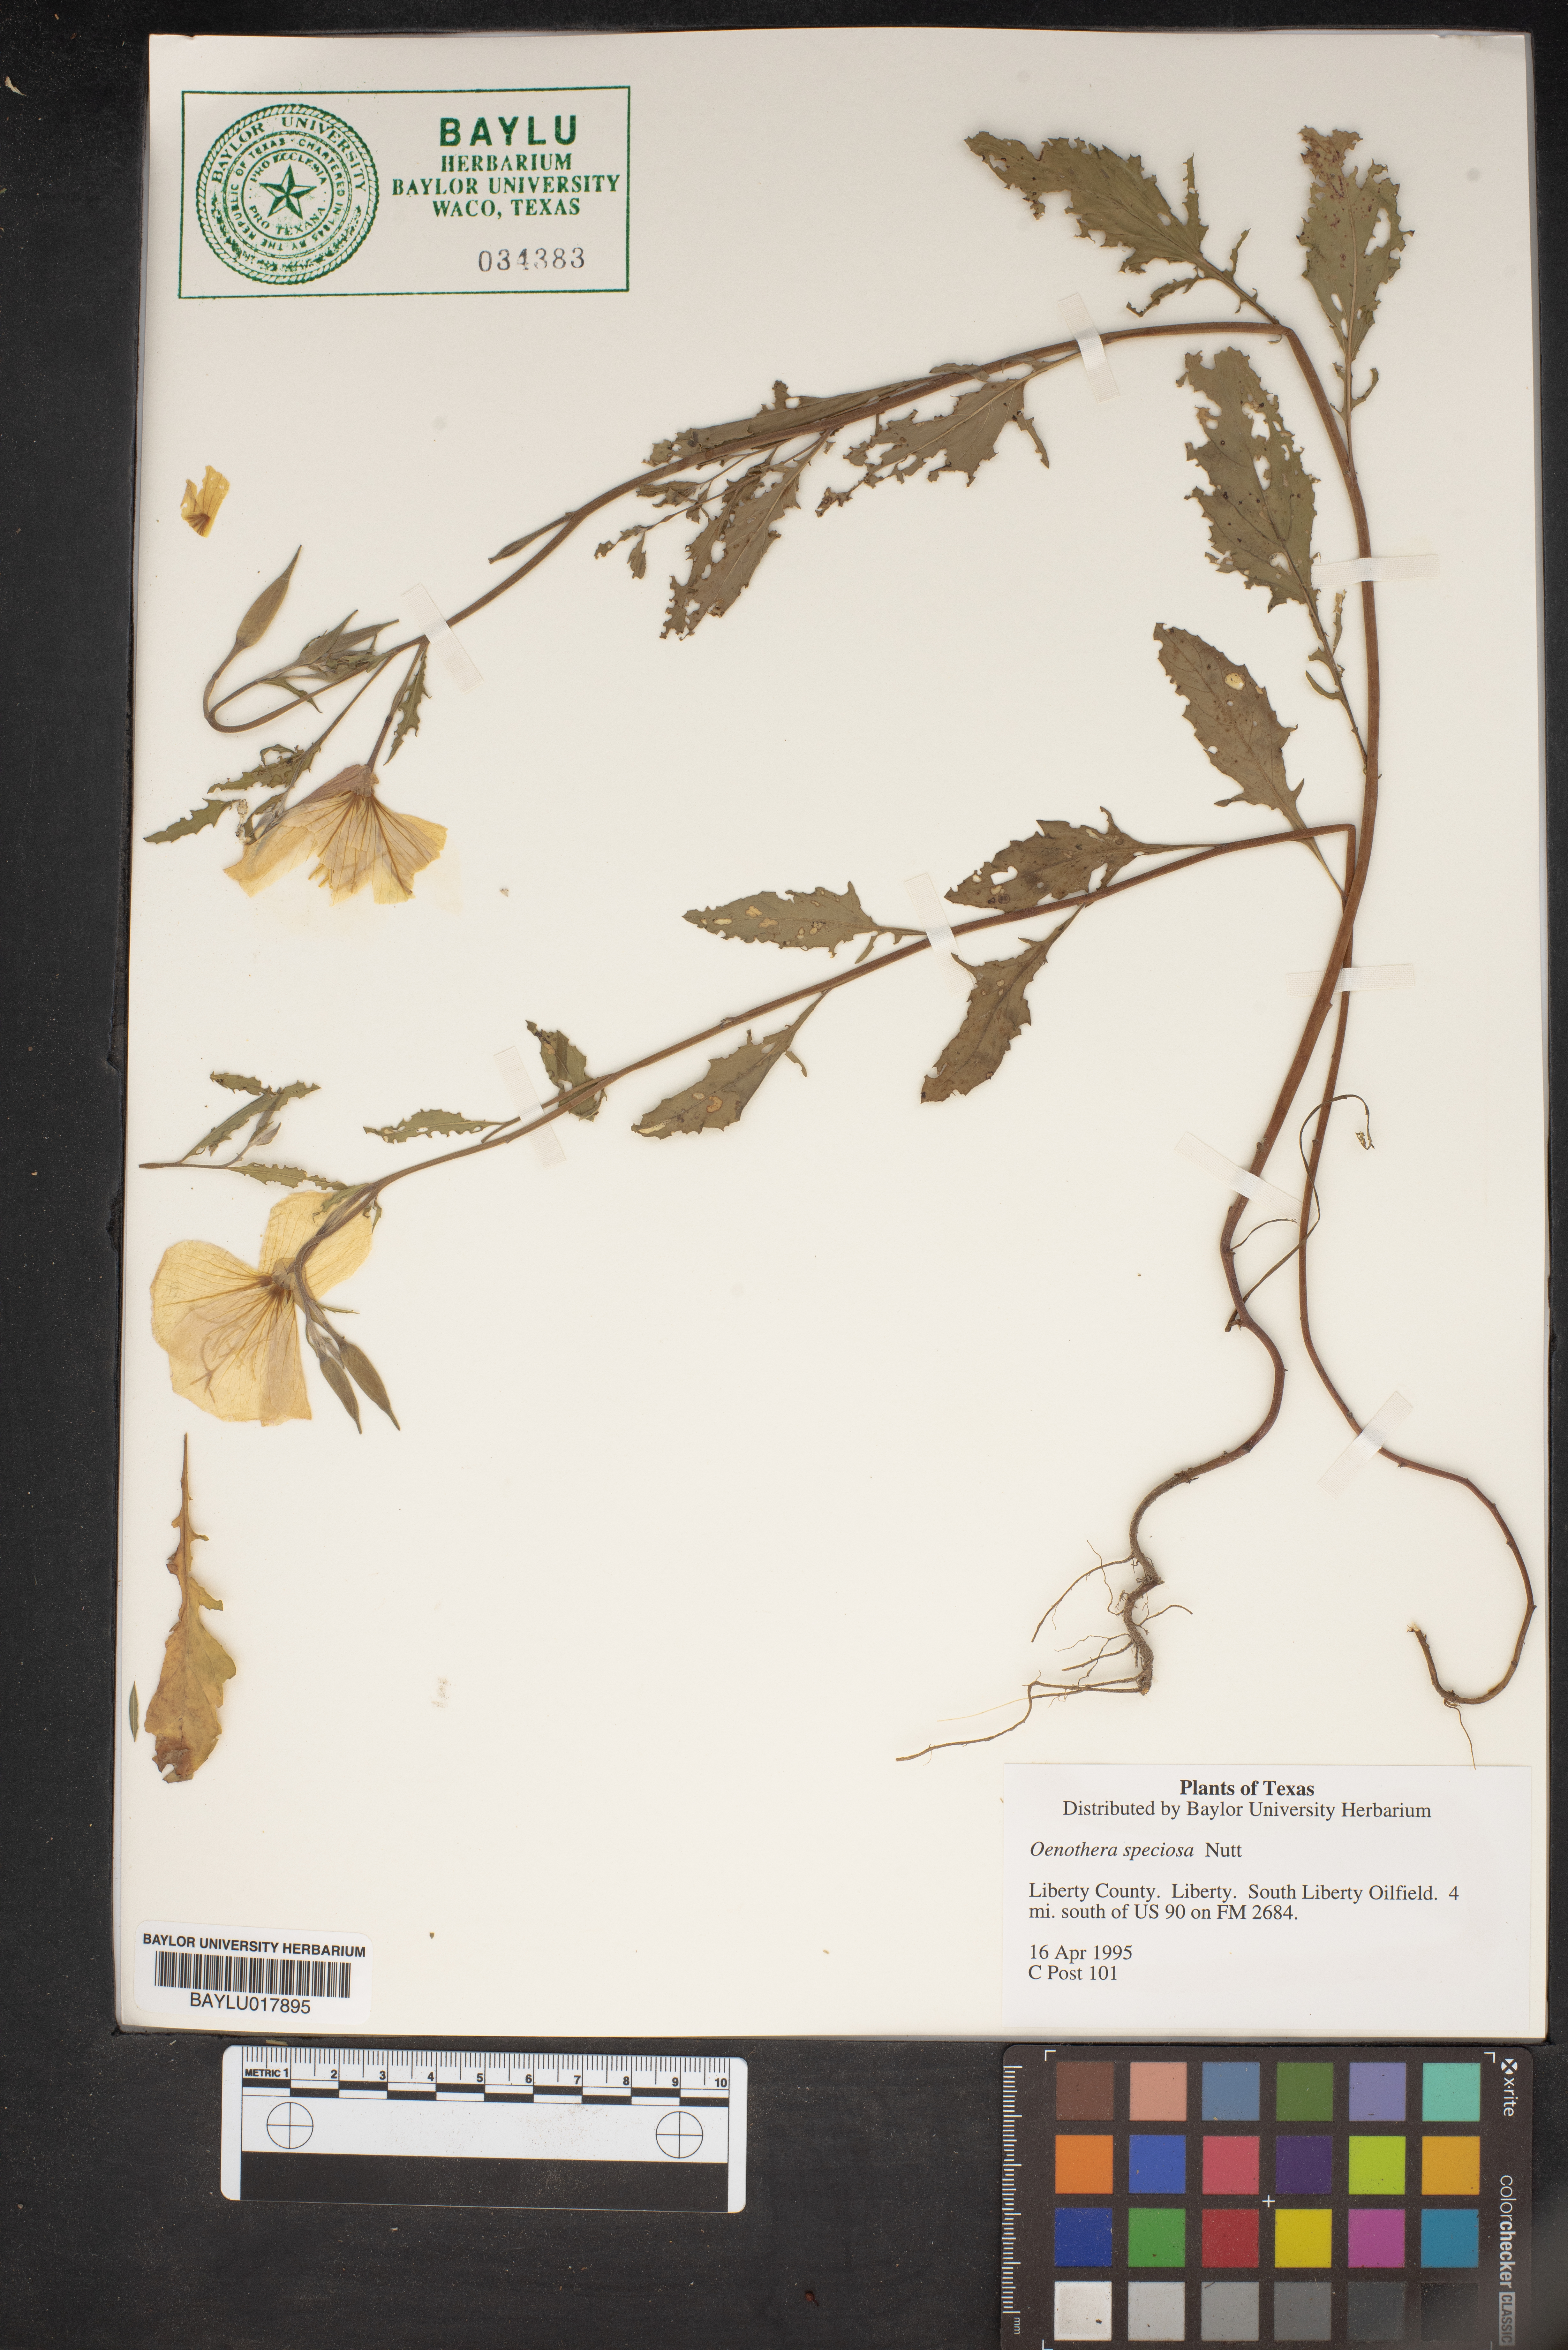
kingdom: Plantae
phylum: Tracheophyta
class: Magnoliopsida
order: Myrtales
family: Onagraceae
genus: Oenothera
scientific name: Oenothera speciosa
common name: White evening-primrose
